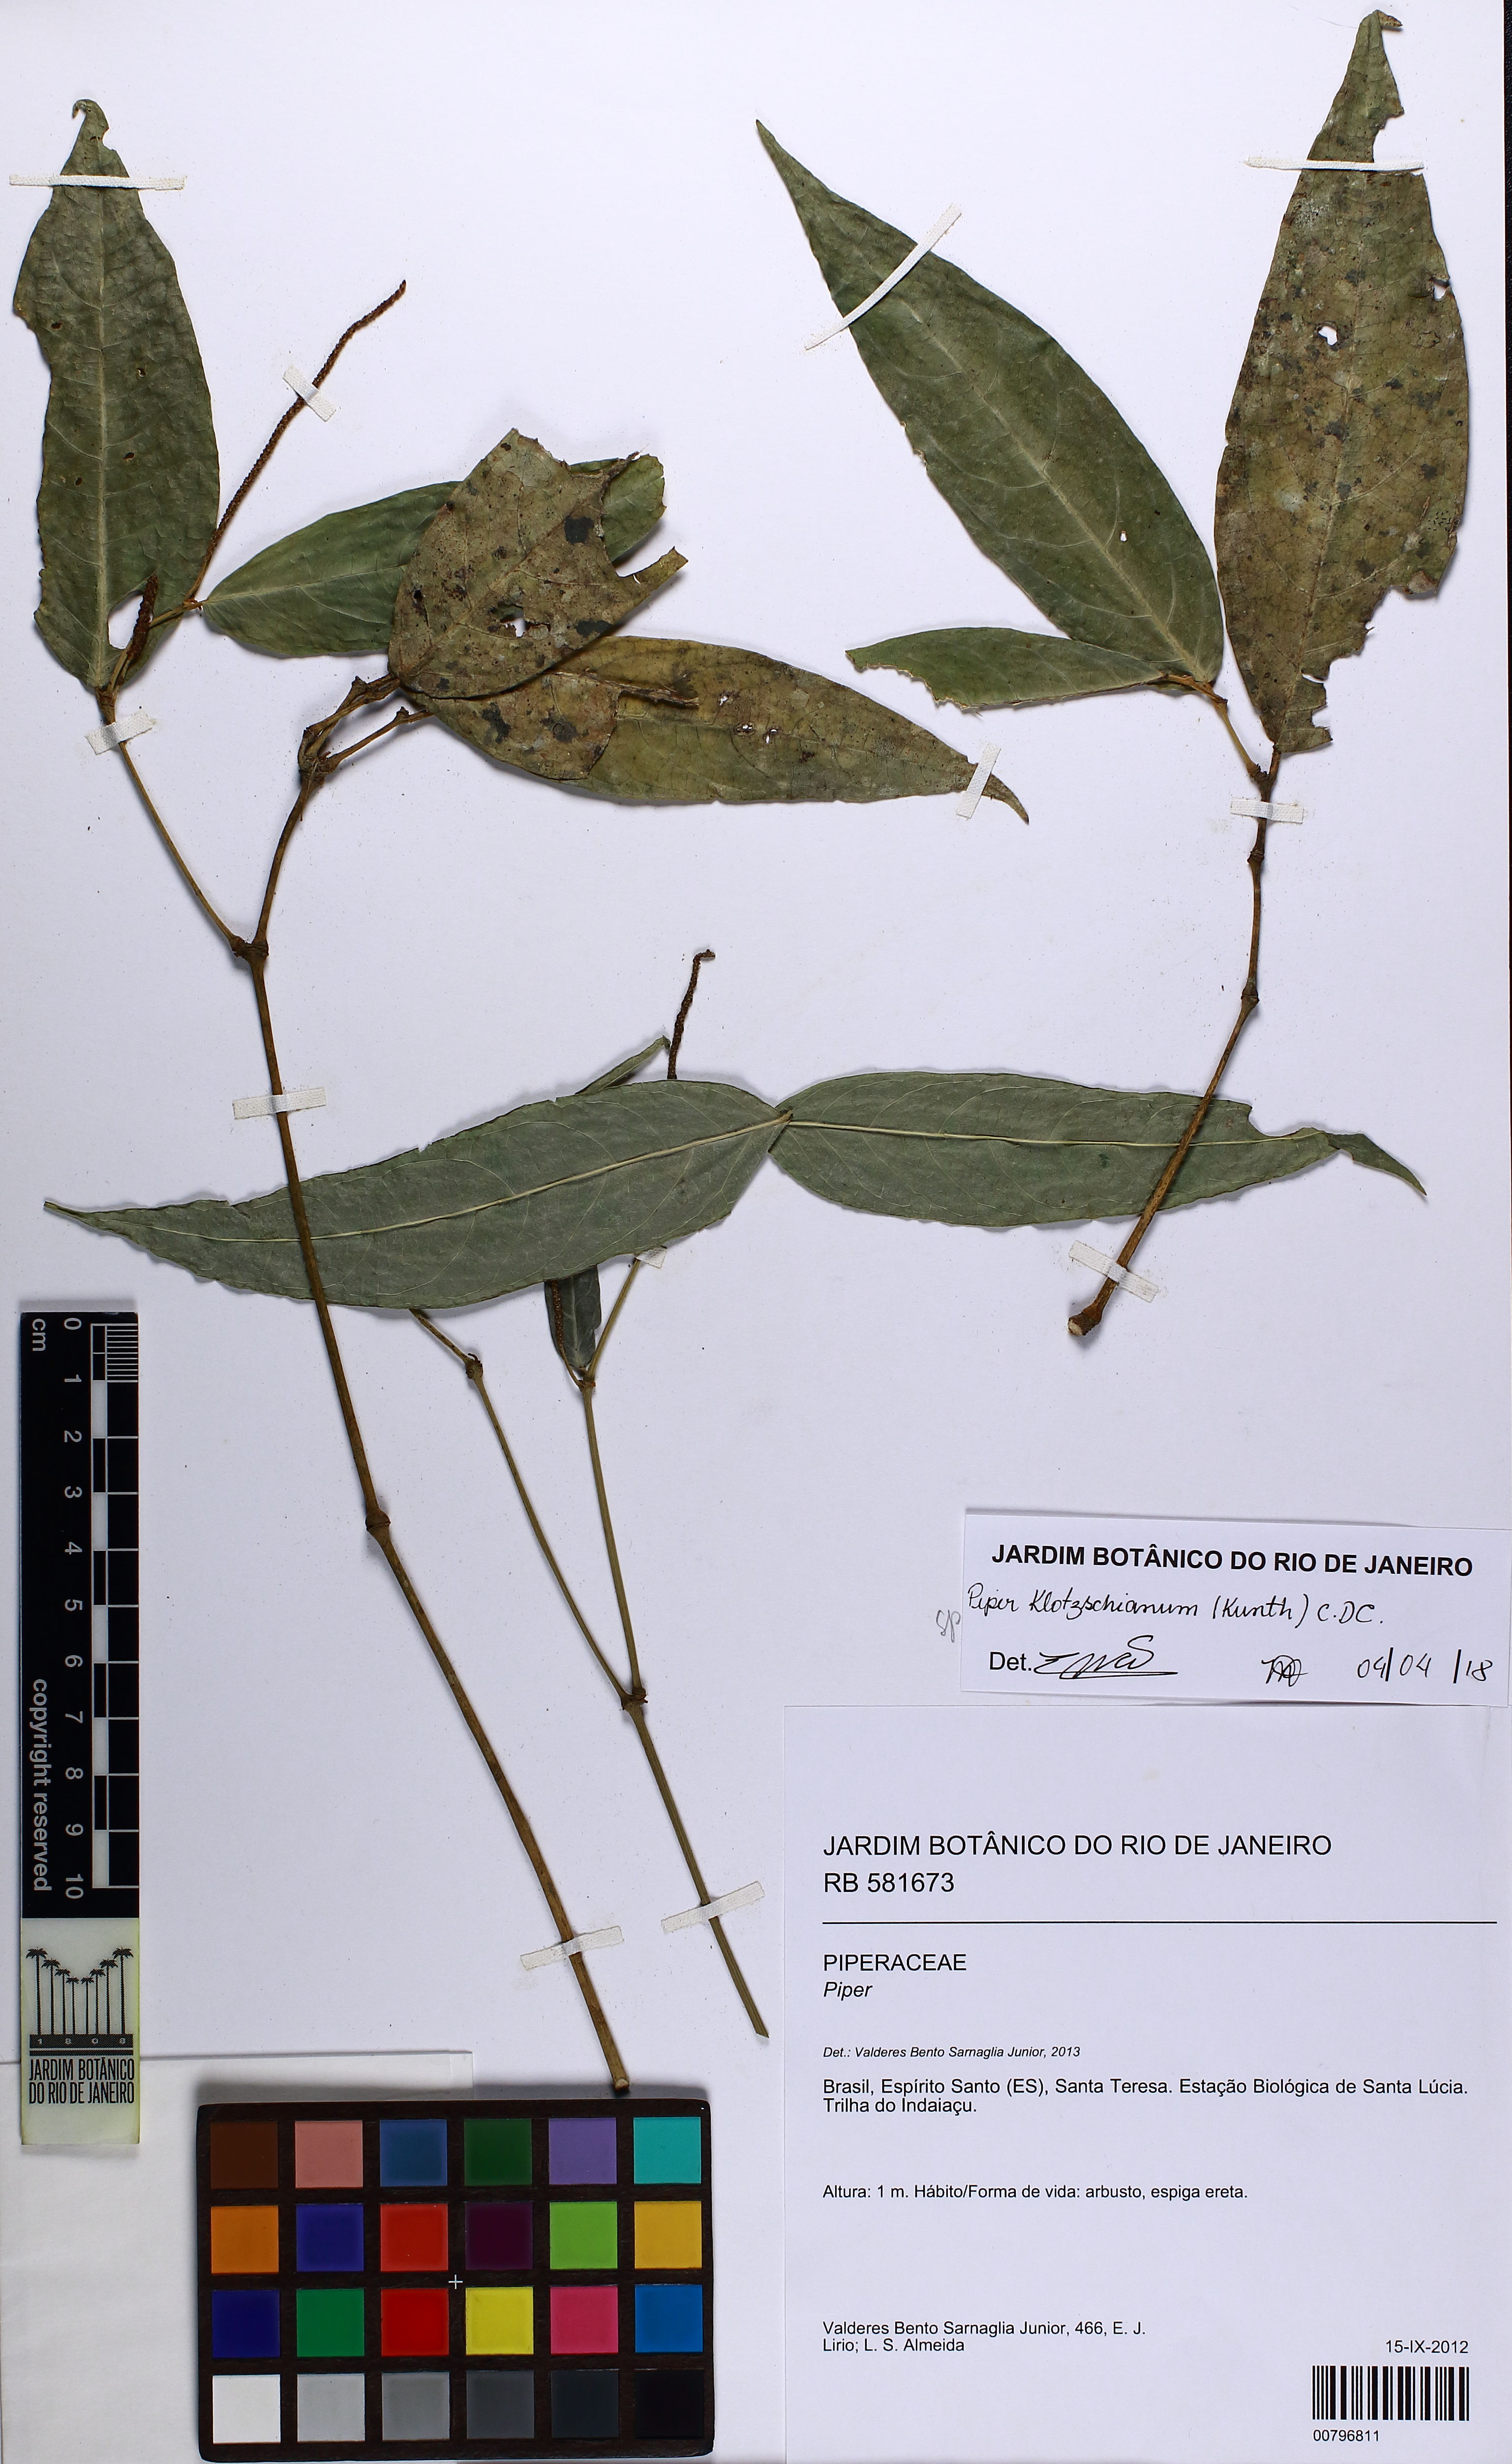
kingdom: Plantae
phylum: Tracheophyta
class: Magnoliopsida
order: Piperales
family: Piperaceae
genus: Piper
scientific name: Piper klotzschianum
